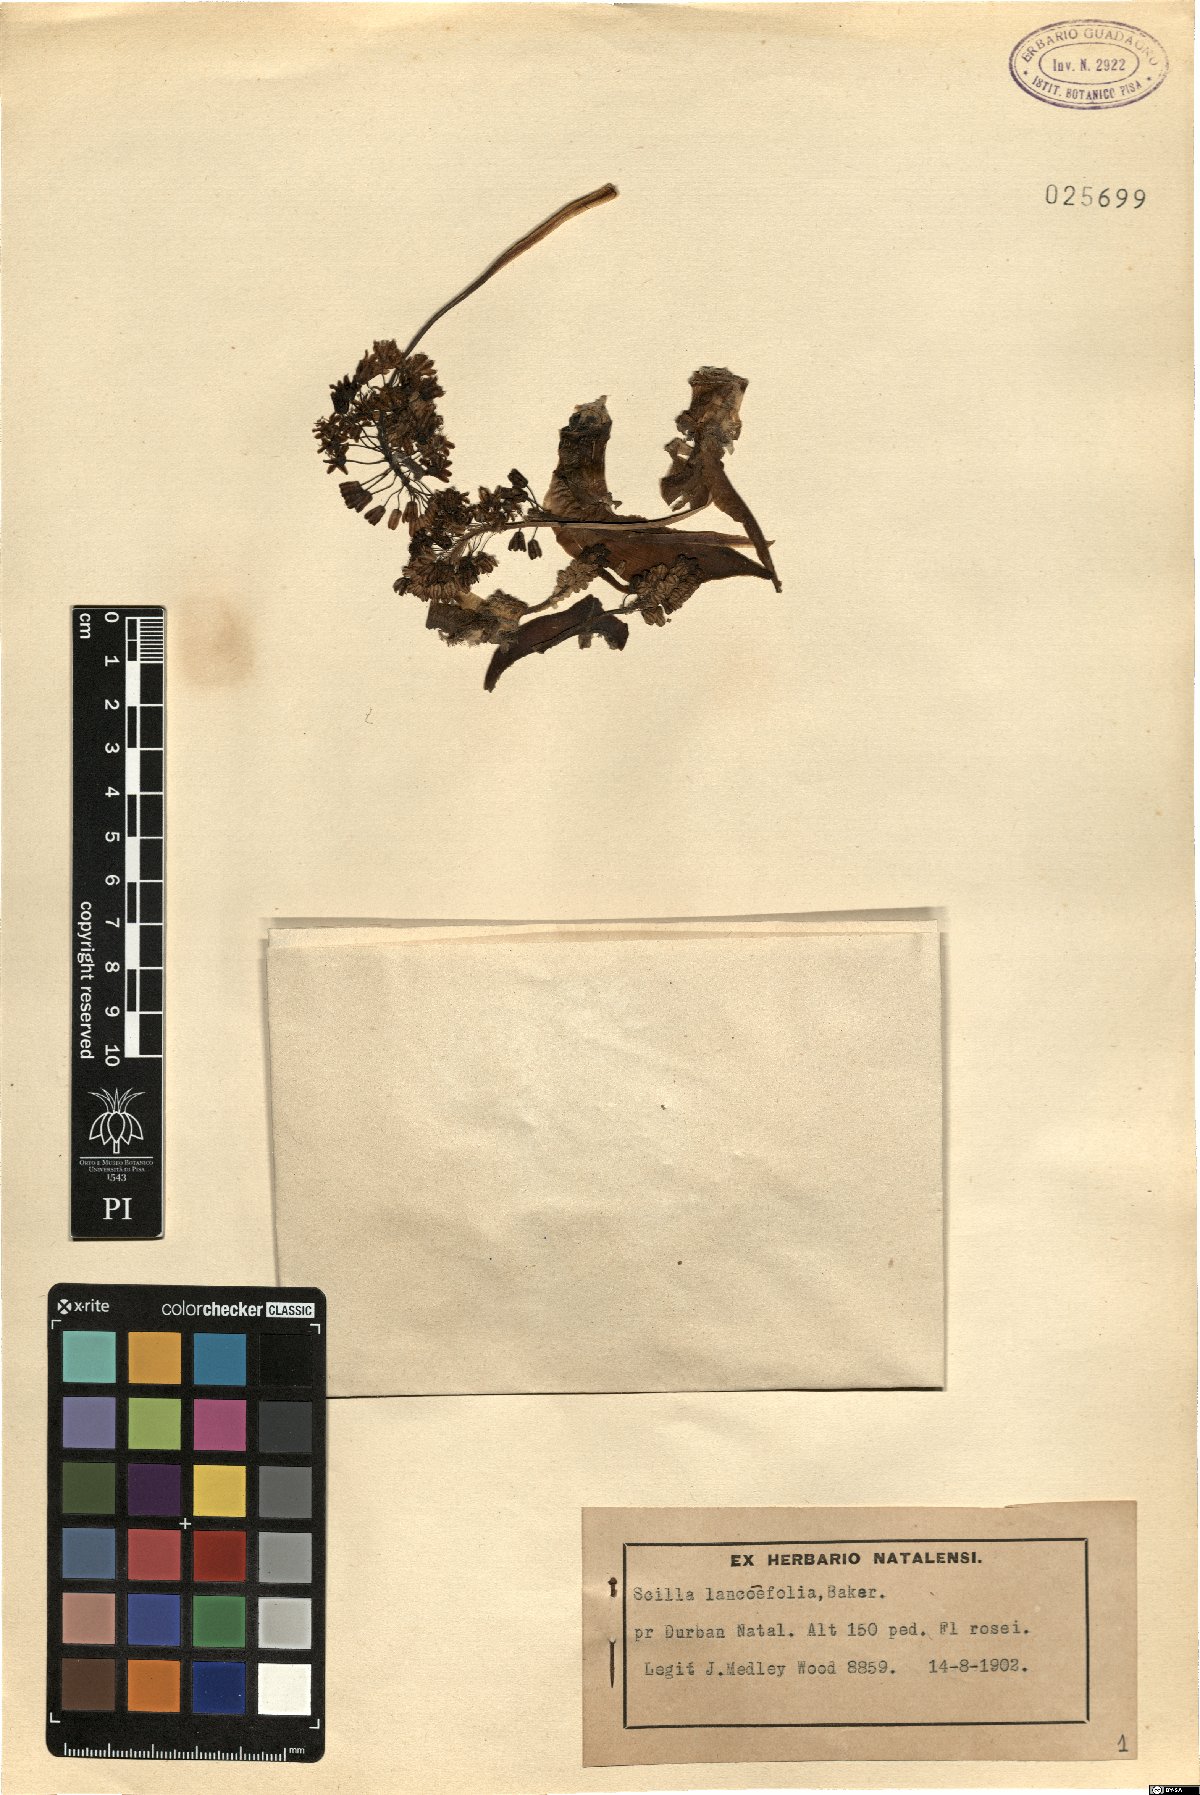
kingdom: Plantae
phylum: Tracheophyta
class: Liliopsida
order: Asparagales
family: Asparagaceae
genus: Ledebouria
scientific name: Ledebouria revoluta
